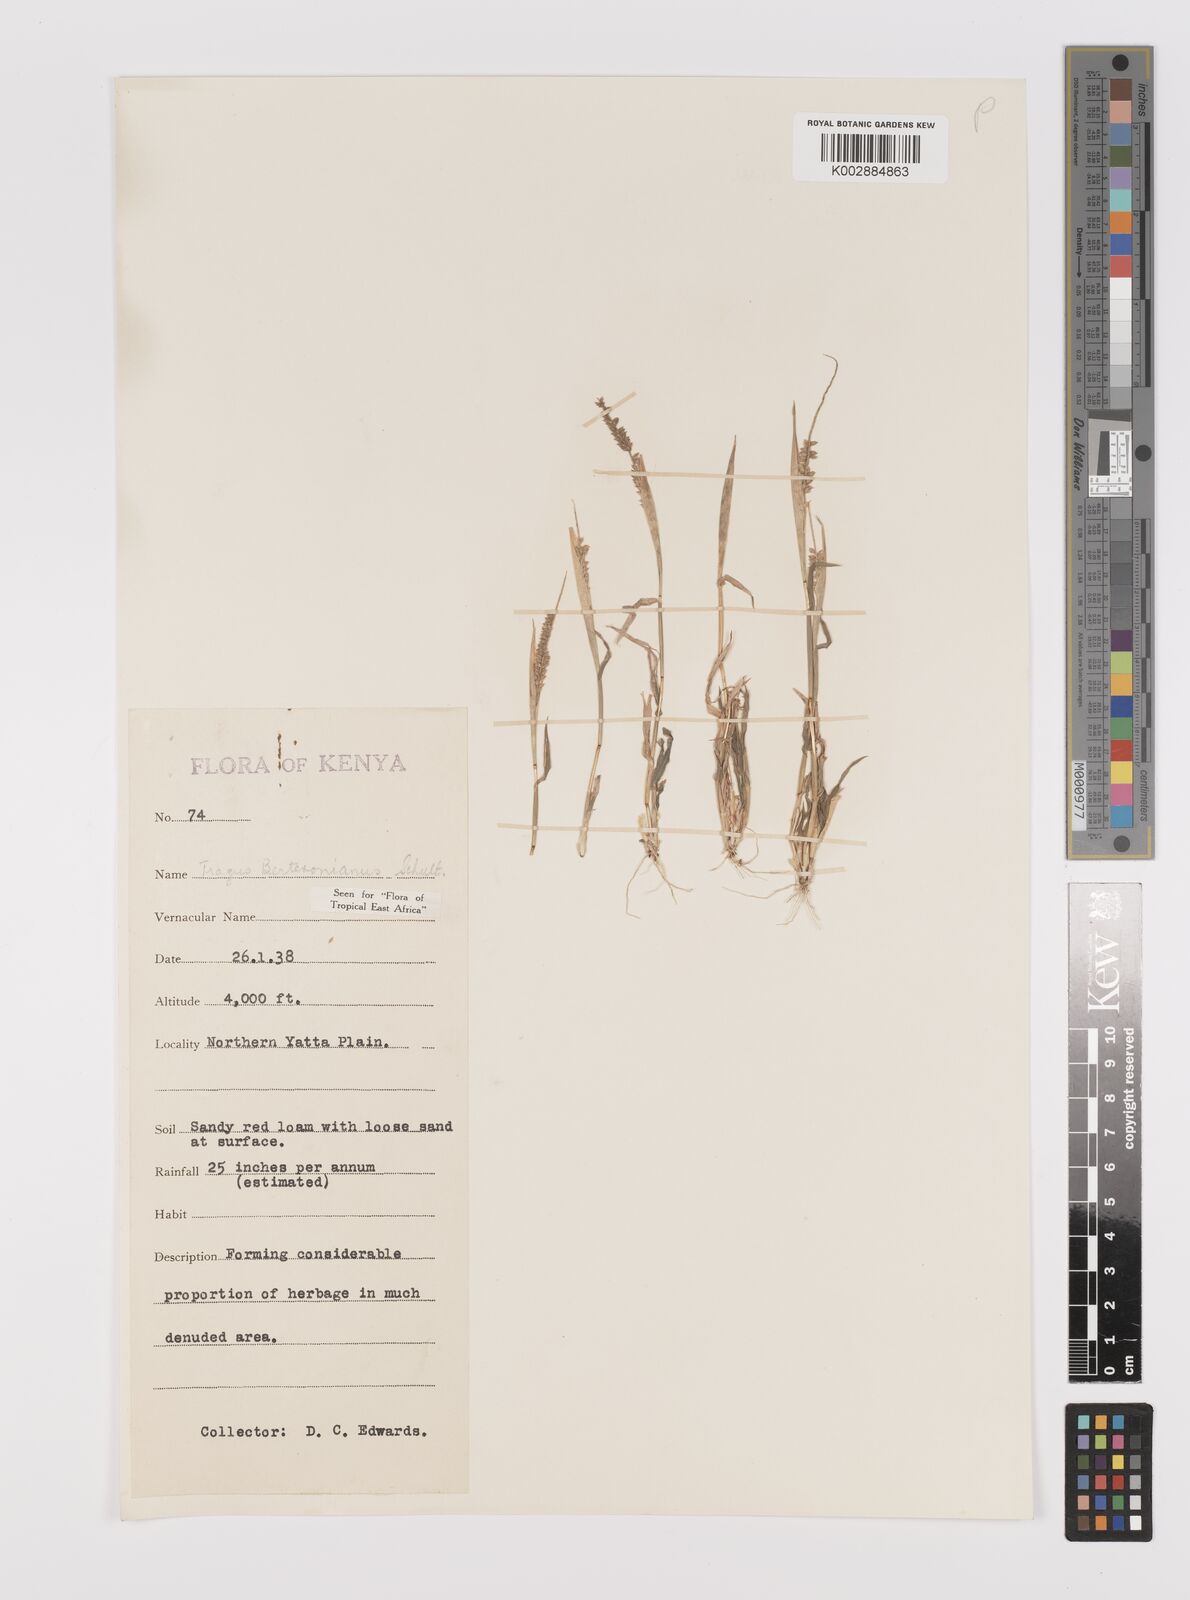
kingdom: Plantae
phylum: Tracheophyta
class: Liliopsida
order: Poales
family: Poaceae
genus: Tragus
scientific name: Tragus berteronianus
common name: African bur-grass
